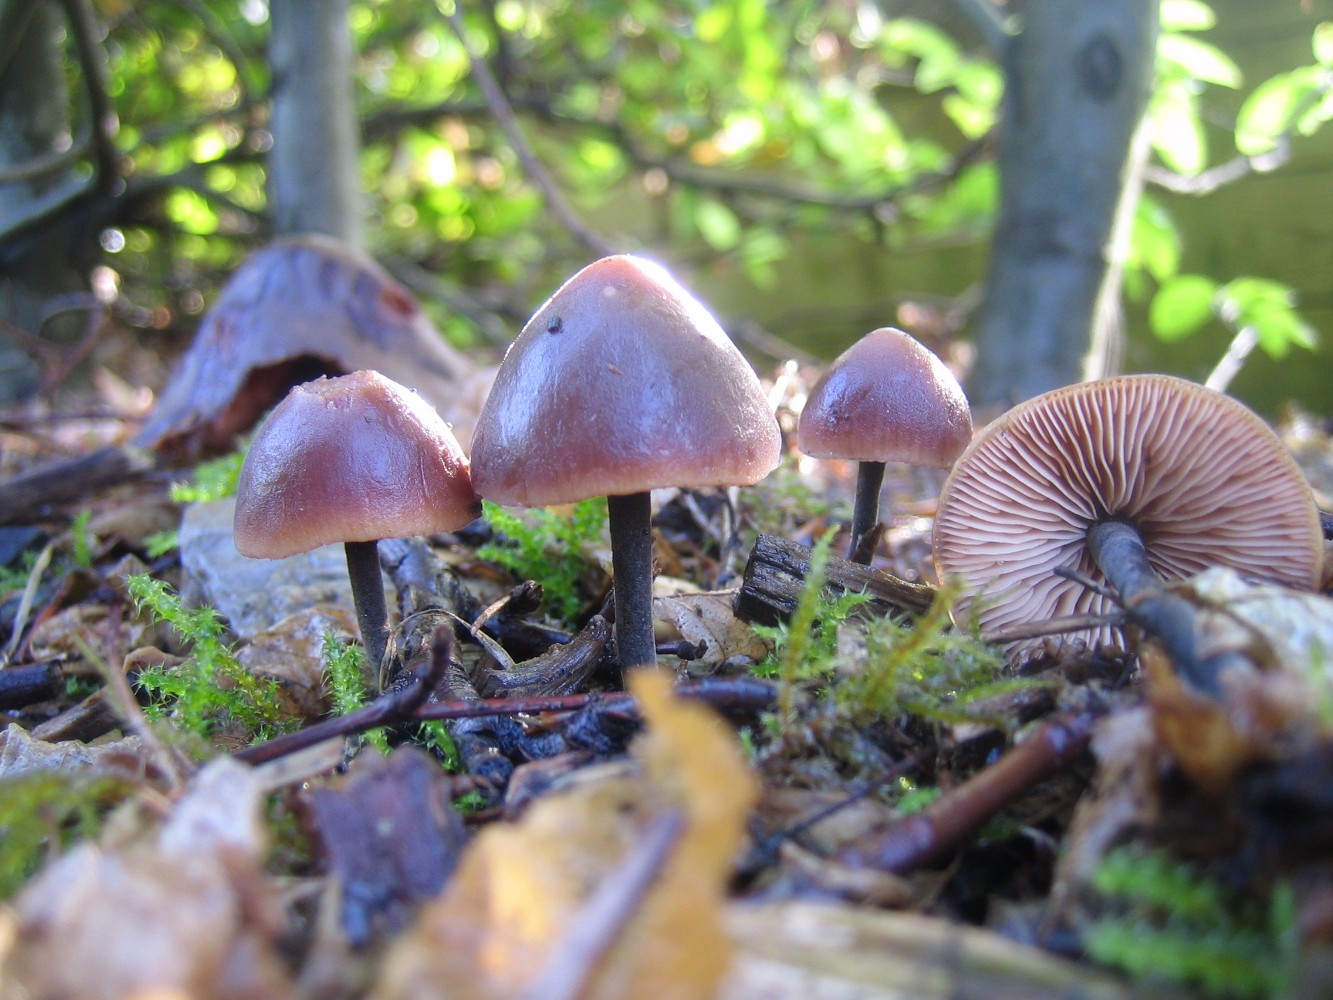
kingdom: Fungi
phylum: Basidiomycota
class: Agaricomycetes
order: Agaricales
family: Macrocystidiaceae
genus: Macrocystidia
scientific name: Macrocystidia cucumis
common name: agurkehat
